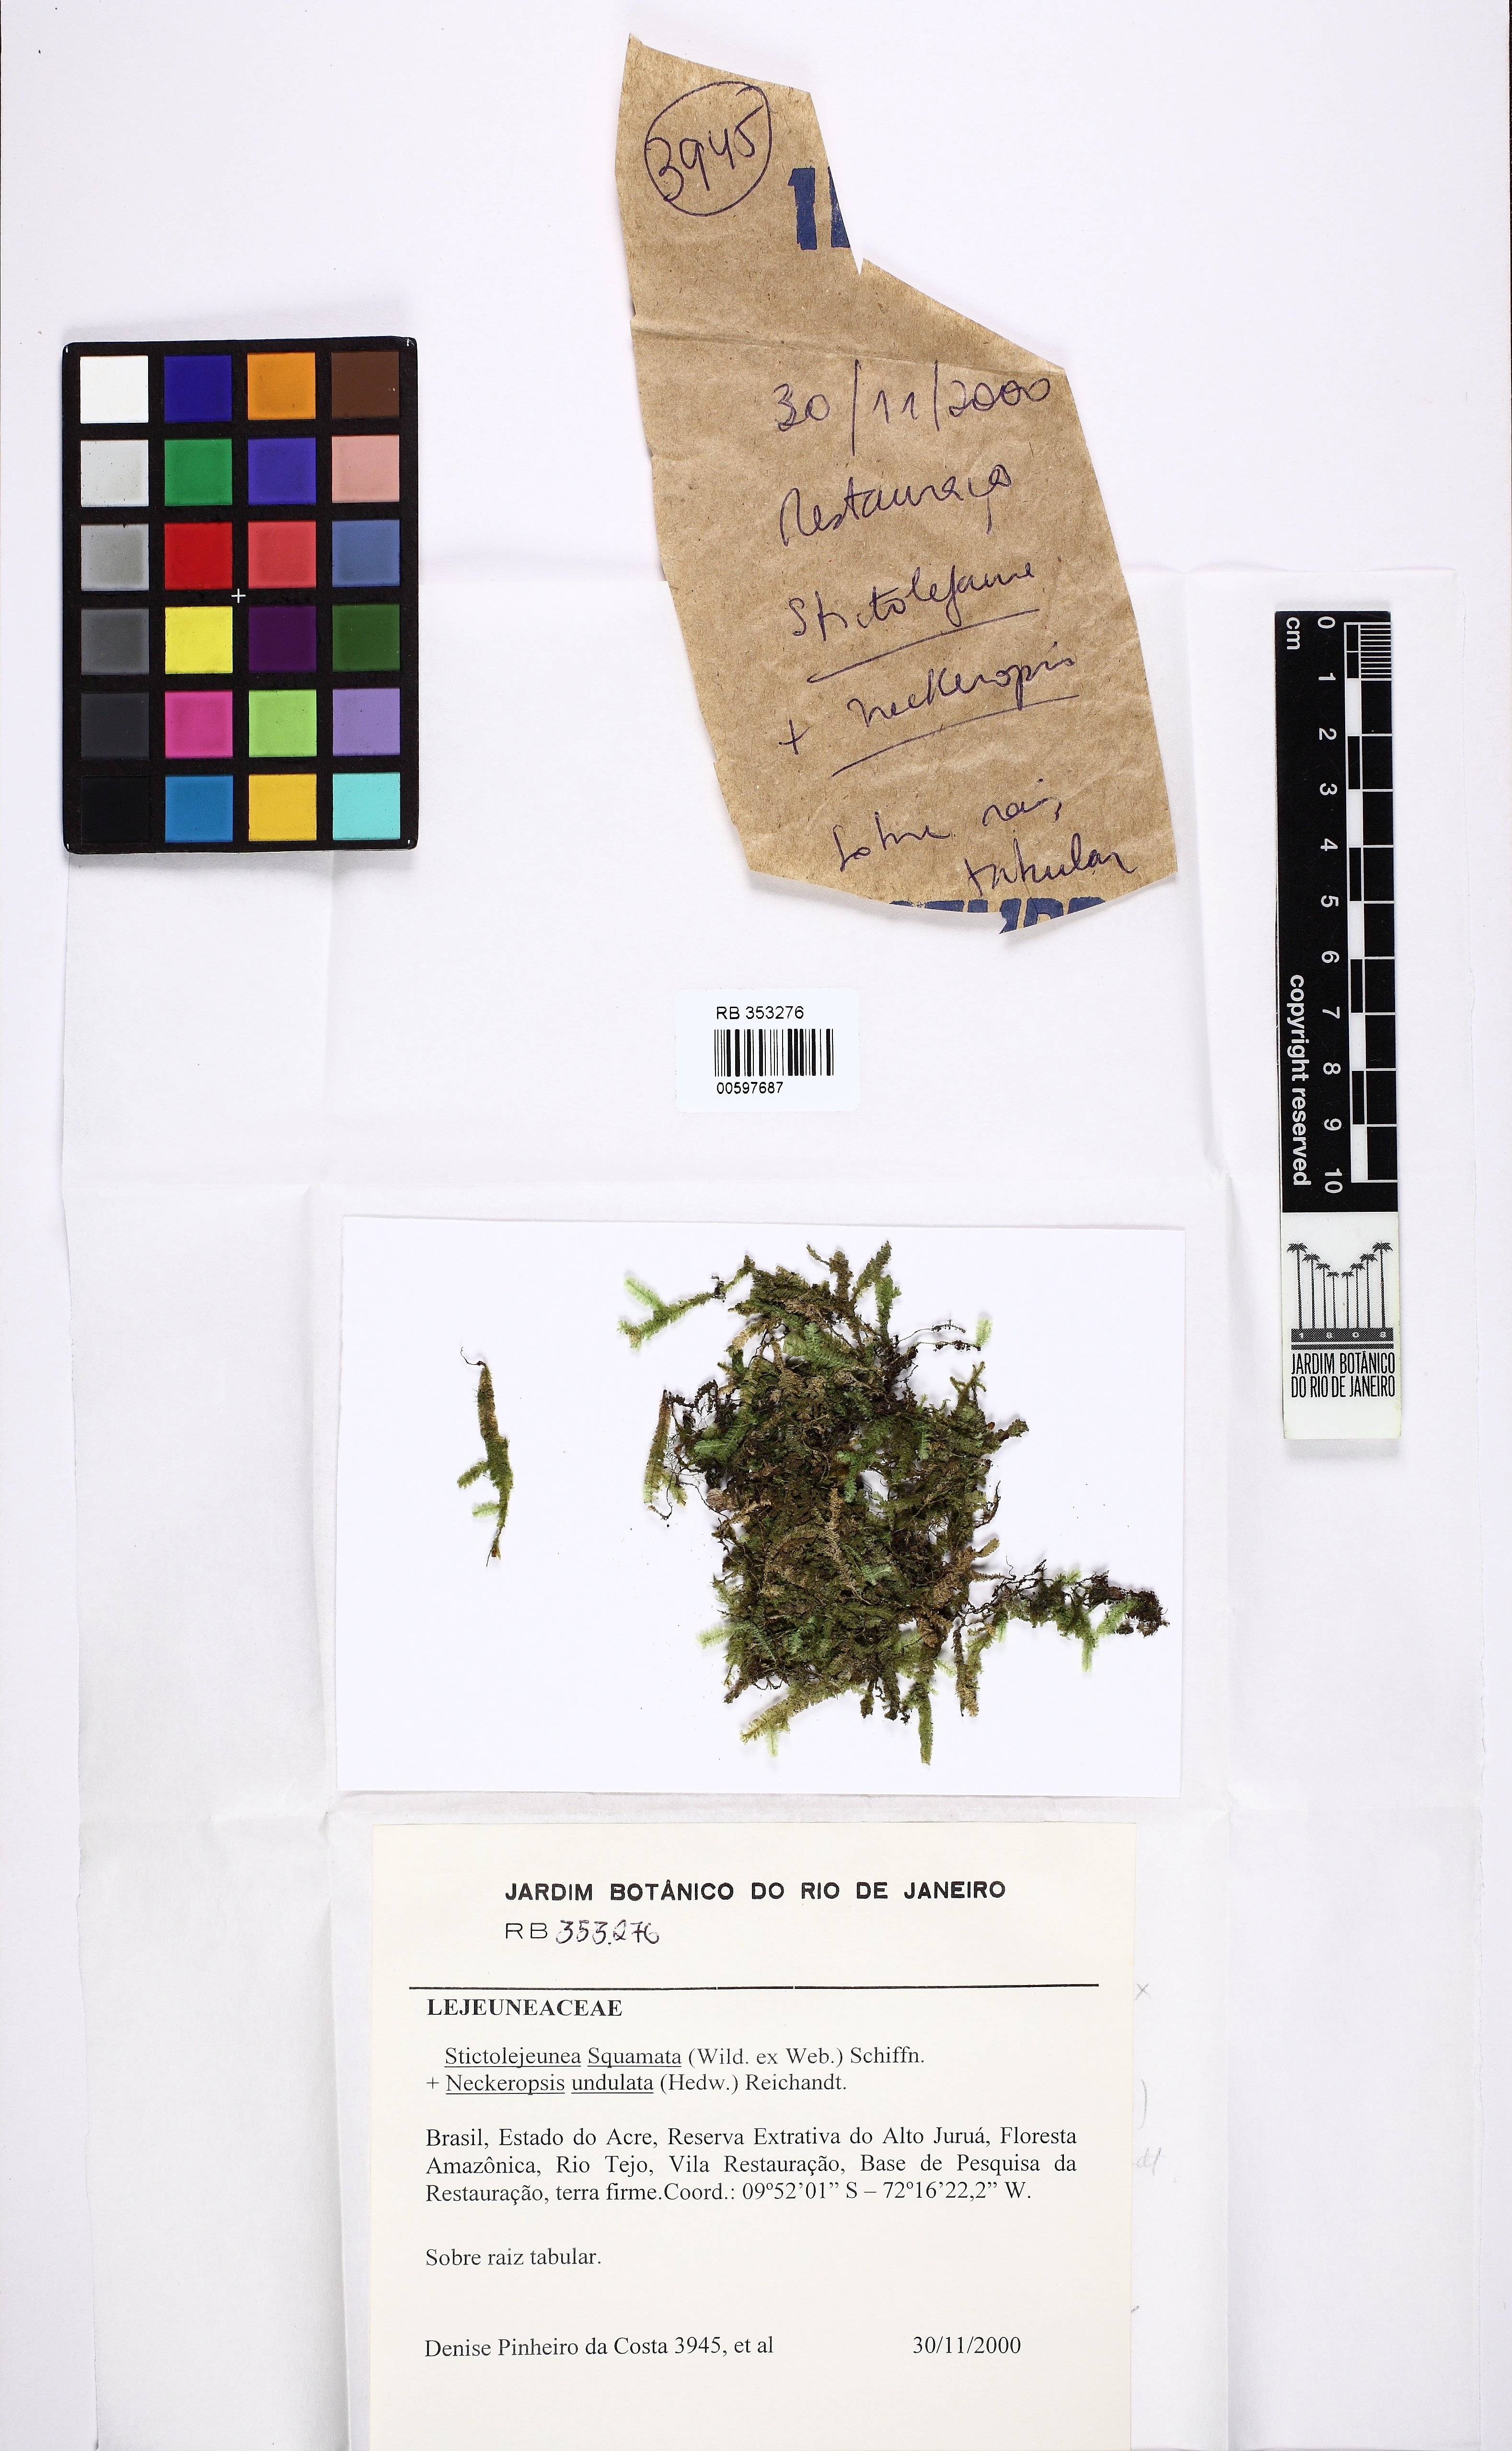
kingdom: Plantae
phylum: Marchantiophyta
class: Jungermanniopsida
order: Porellales
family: Lejeuneaceae
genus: Stictolejeunea
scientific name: Stictolejeunea squamata
